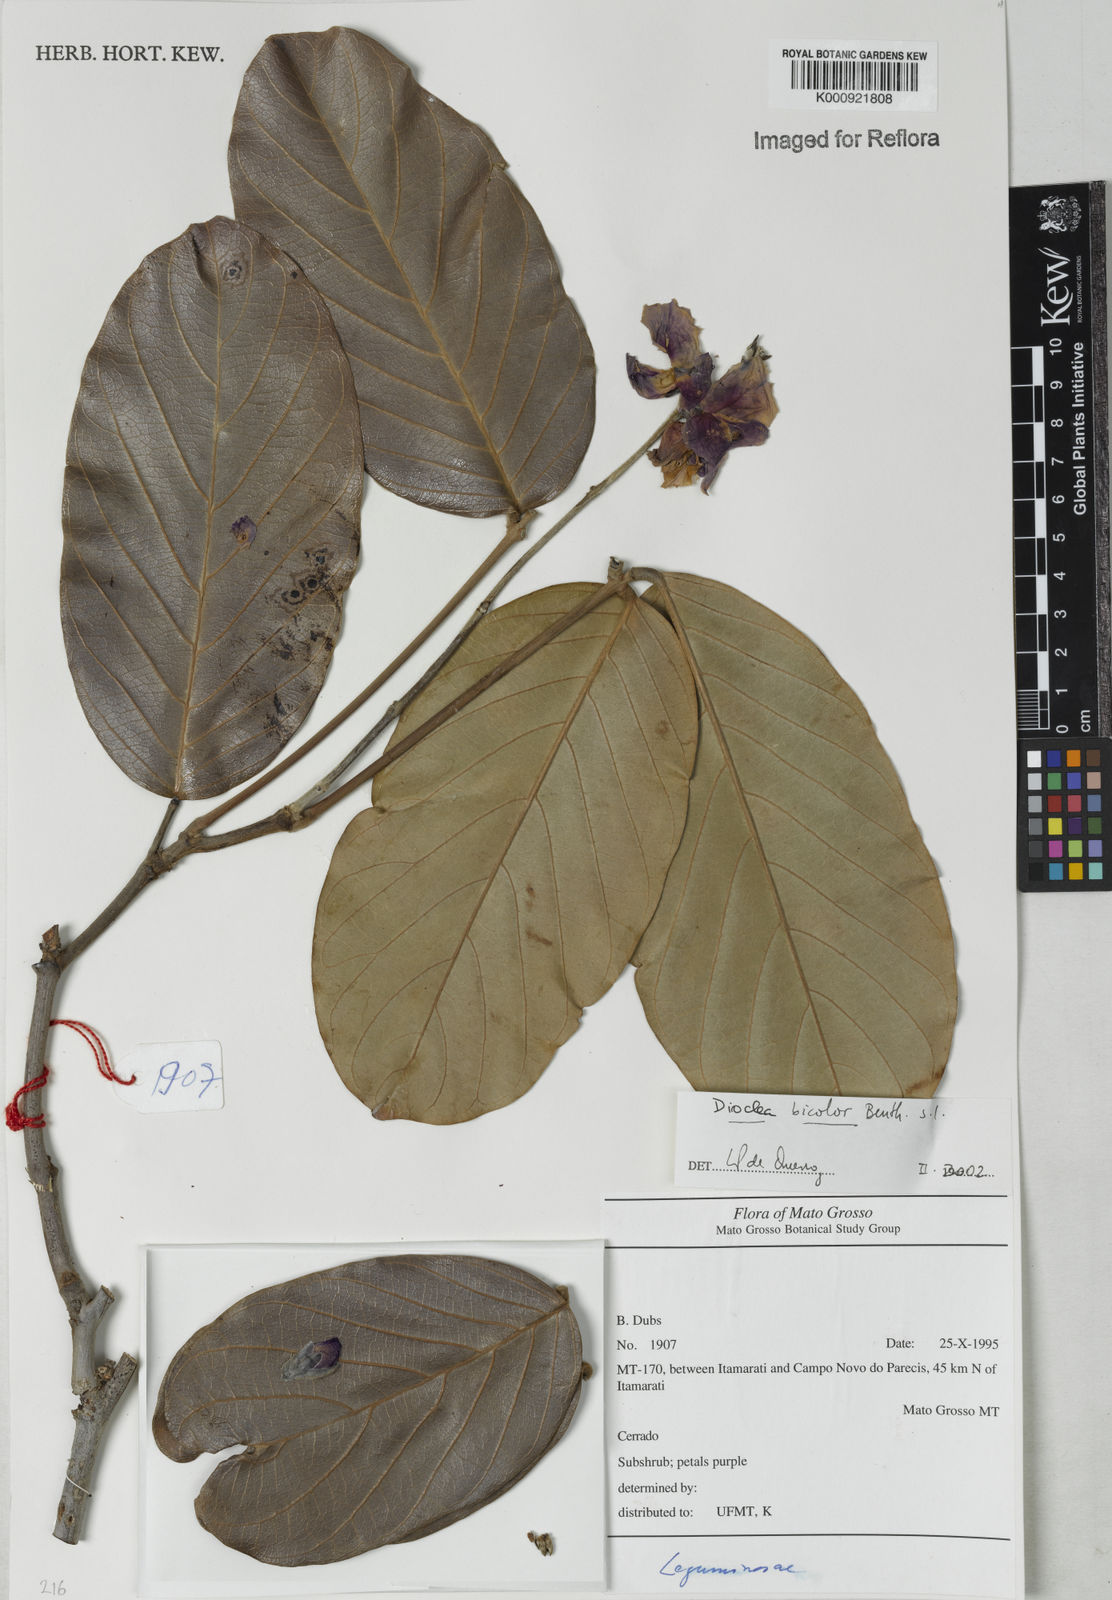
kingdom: Plantae
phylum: Tracheophyta
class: Magnoliopsida
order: Fabales
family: Fabaceae
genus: Macropsychanthus
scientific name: Macropsychanthus bicolor
